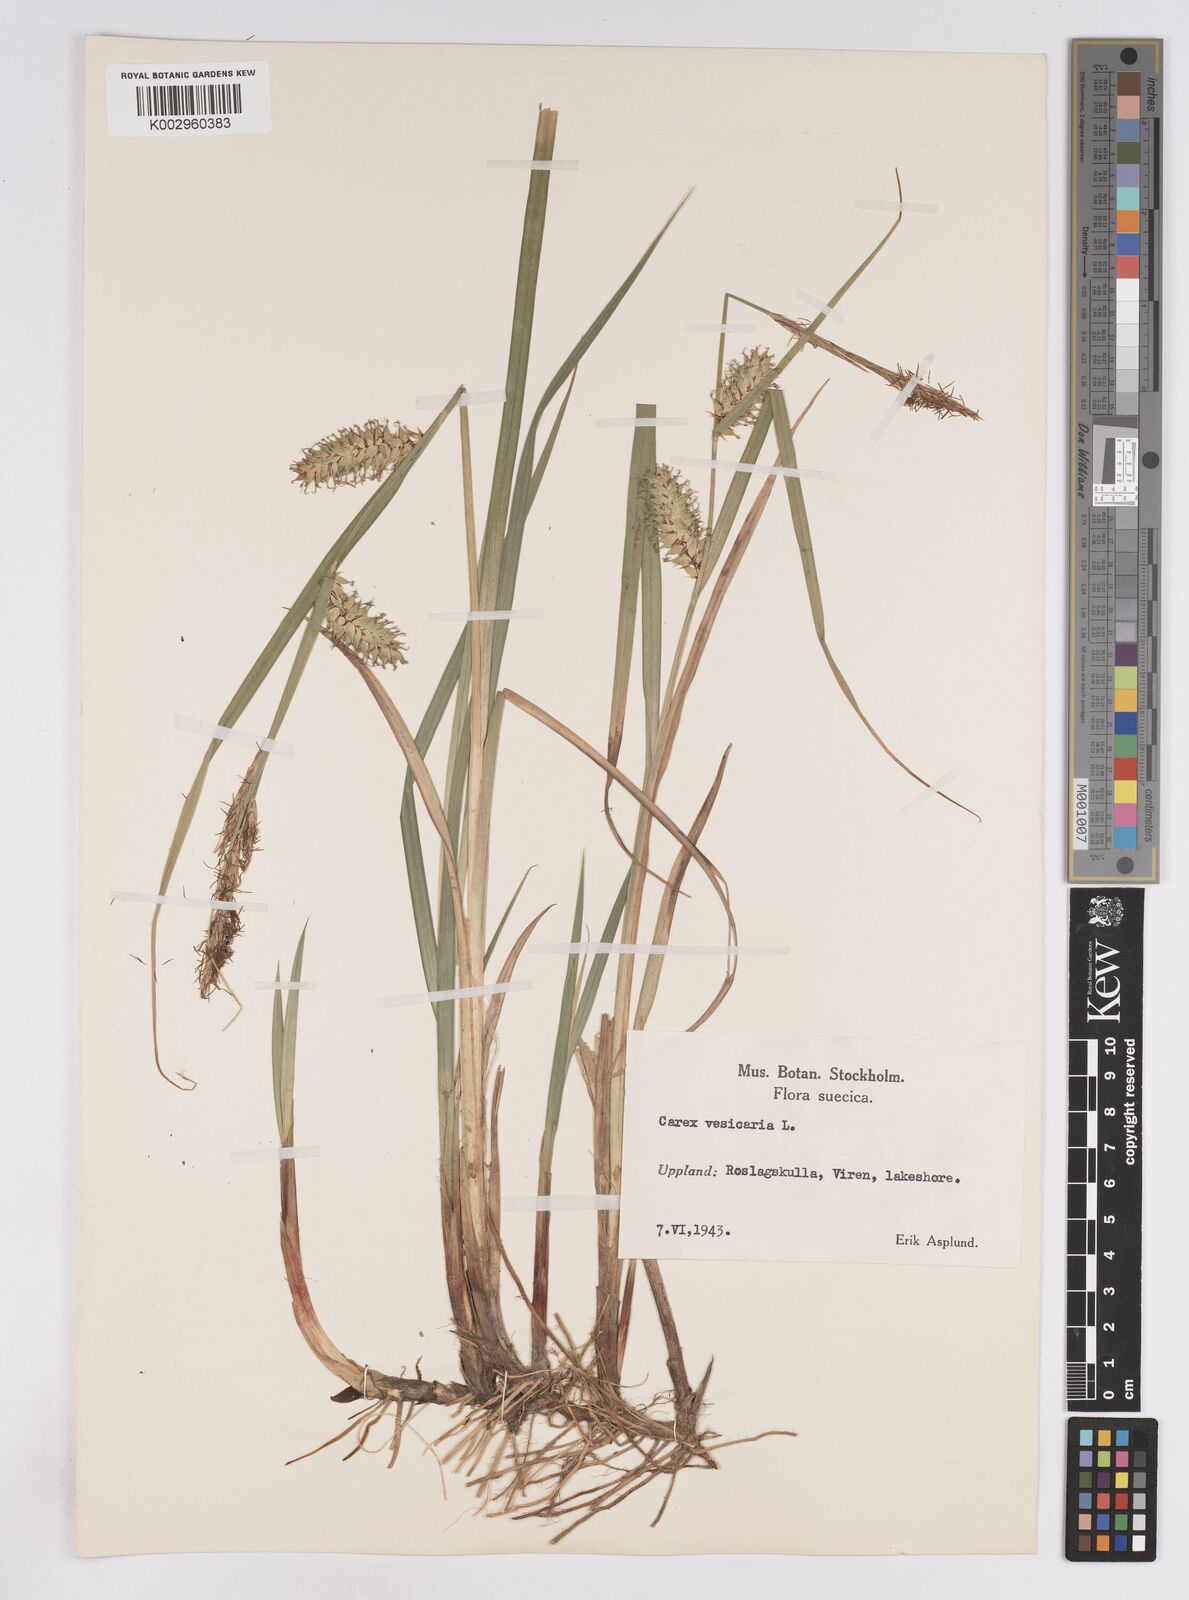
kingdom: Plantae
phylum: Tracheophyta
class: Liliopsida
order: Poales
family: Cyperaceae
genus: Carex
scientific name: Carex vesicaria
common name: Bladder-sedge
